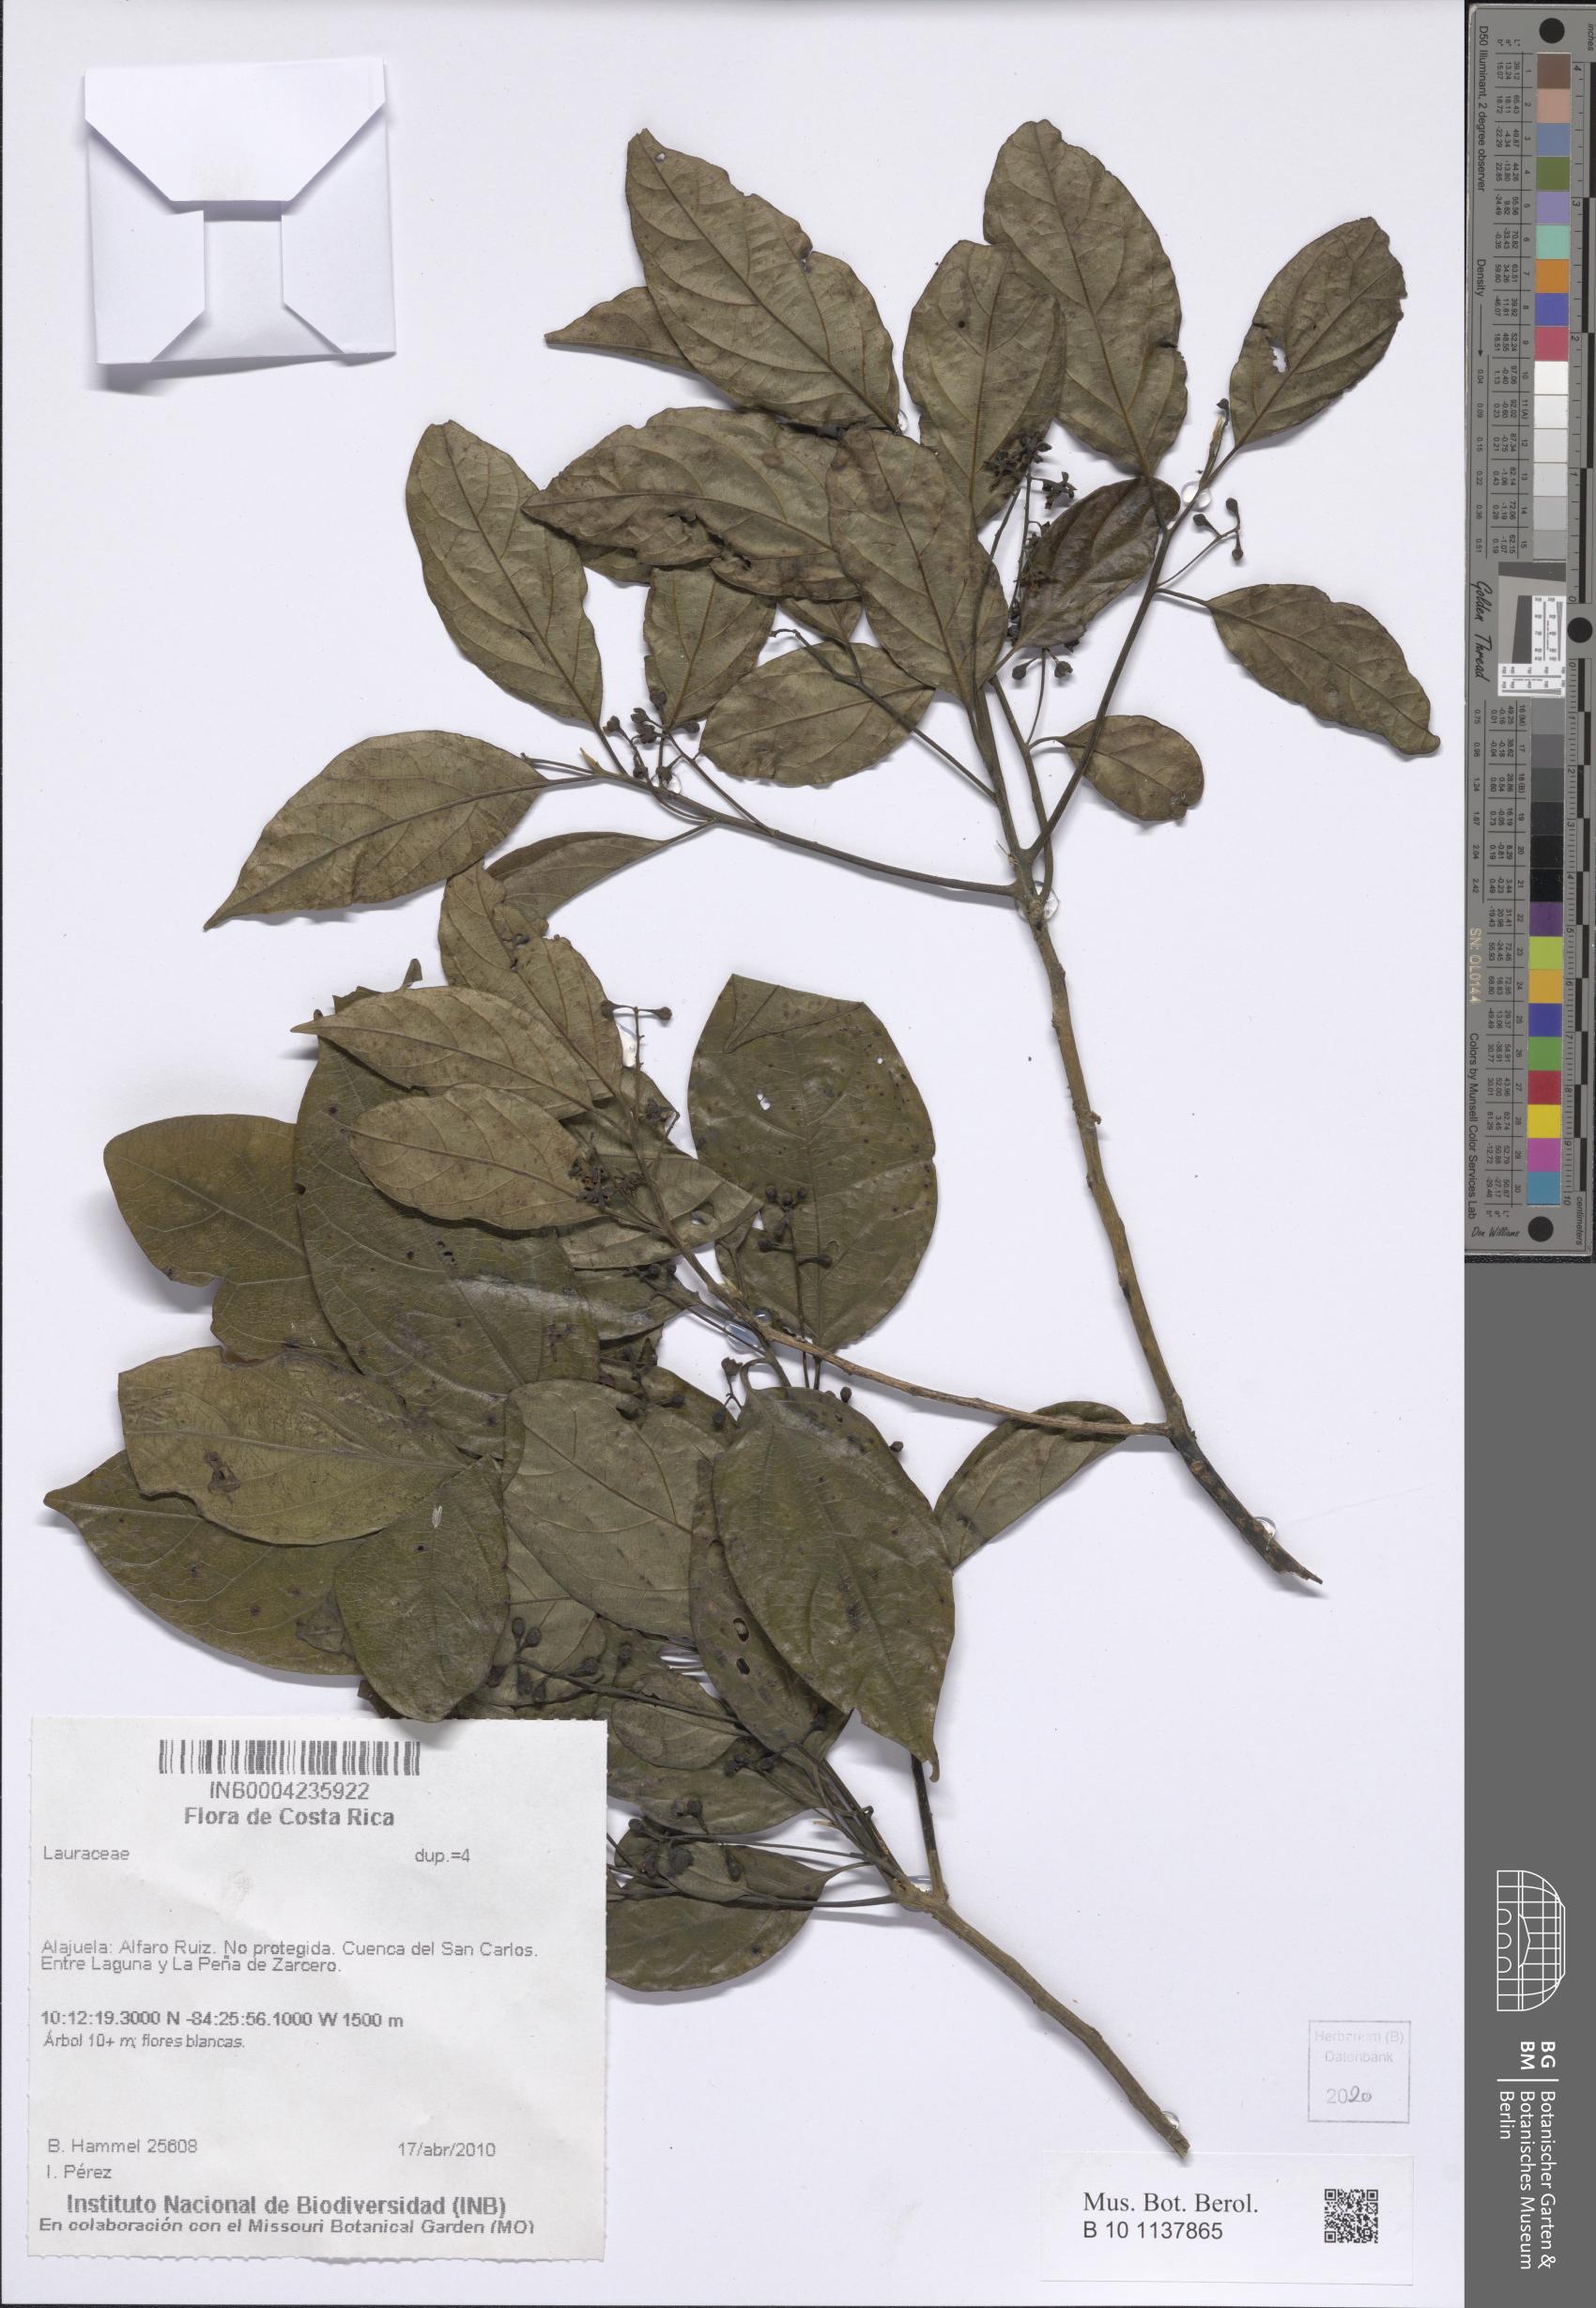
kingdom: Plantae
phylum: Tracheophyta
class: Magnoliopsida
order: Laurales
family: Lauraceae
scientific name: Lauraceae
